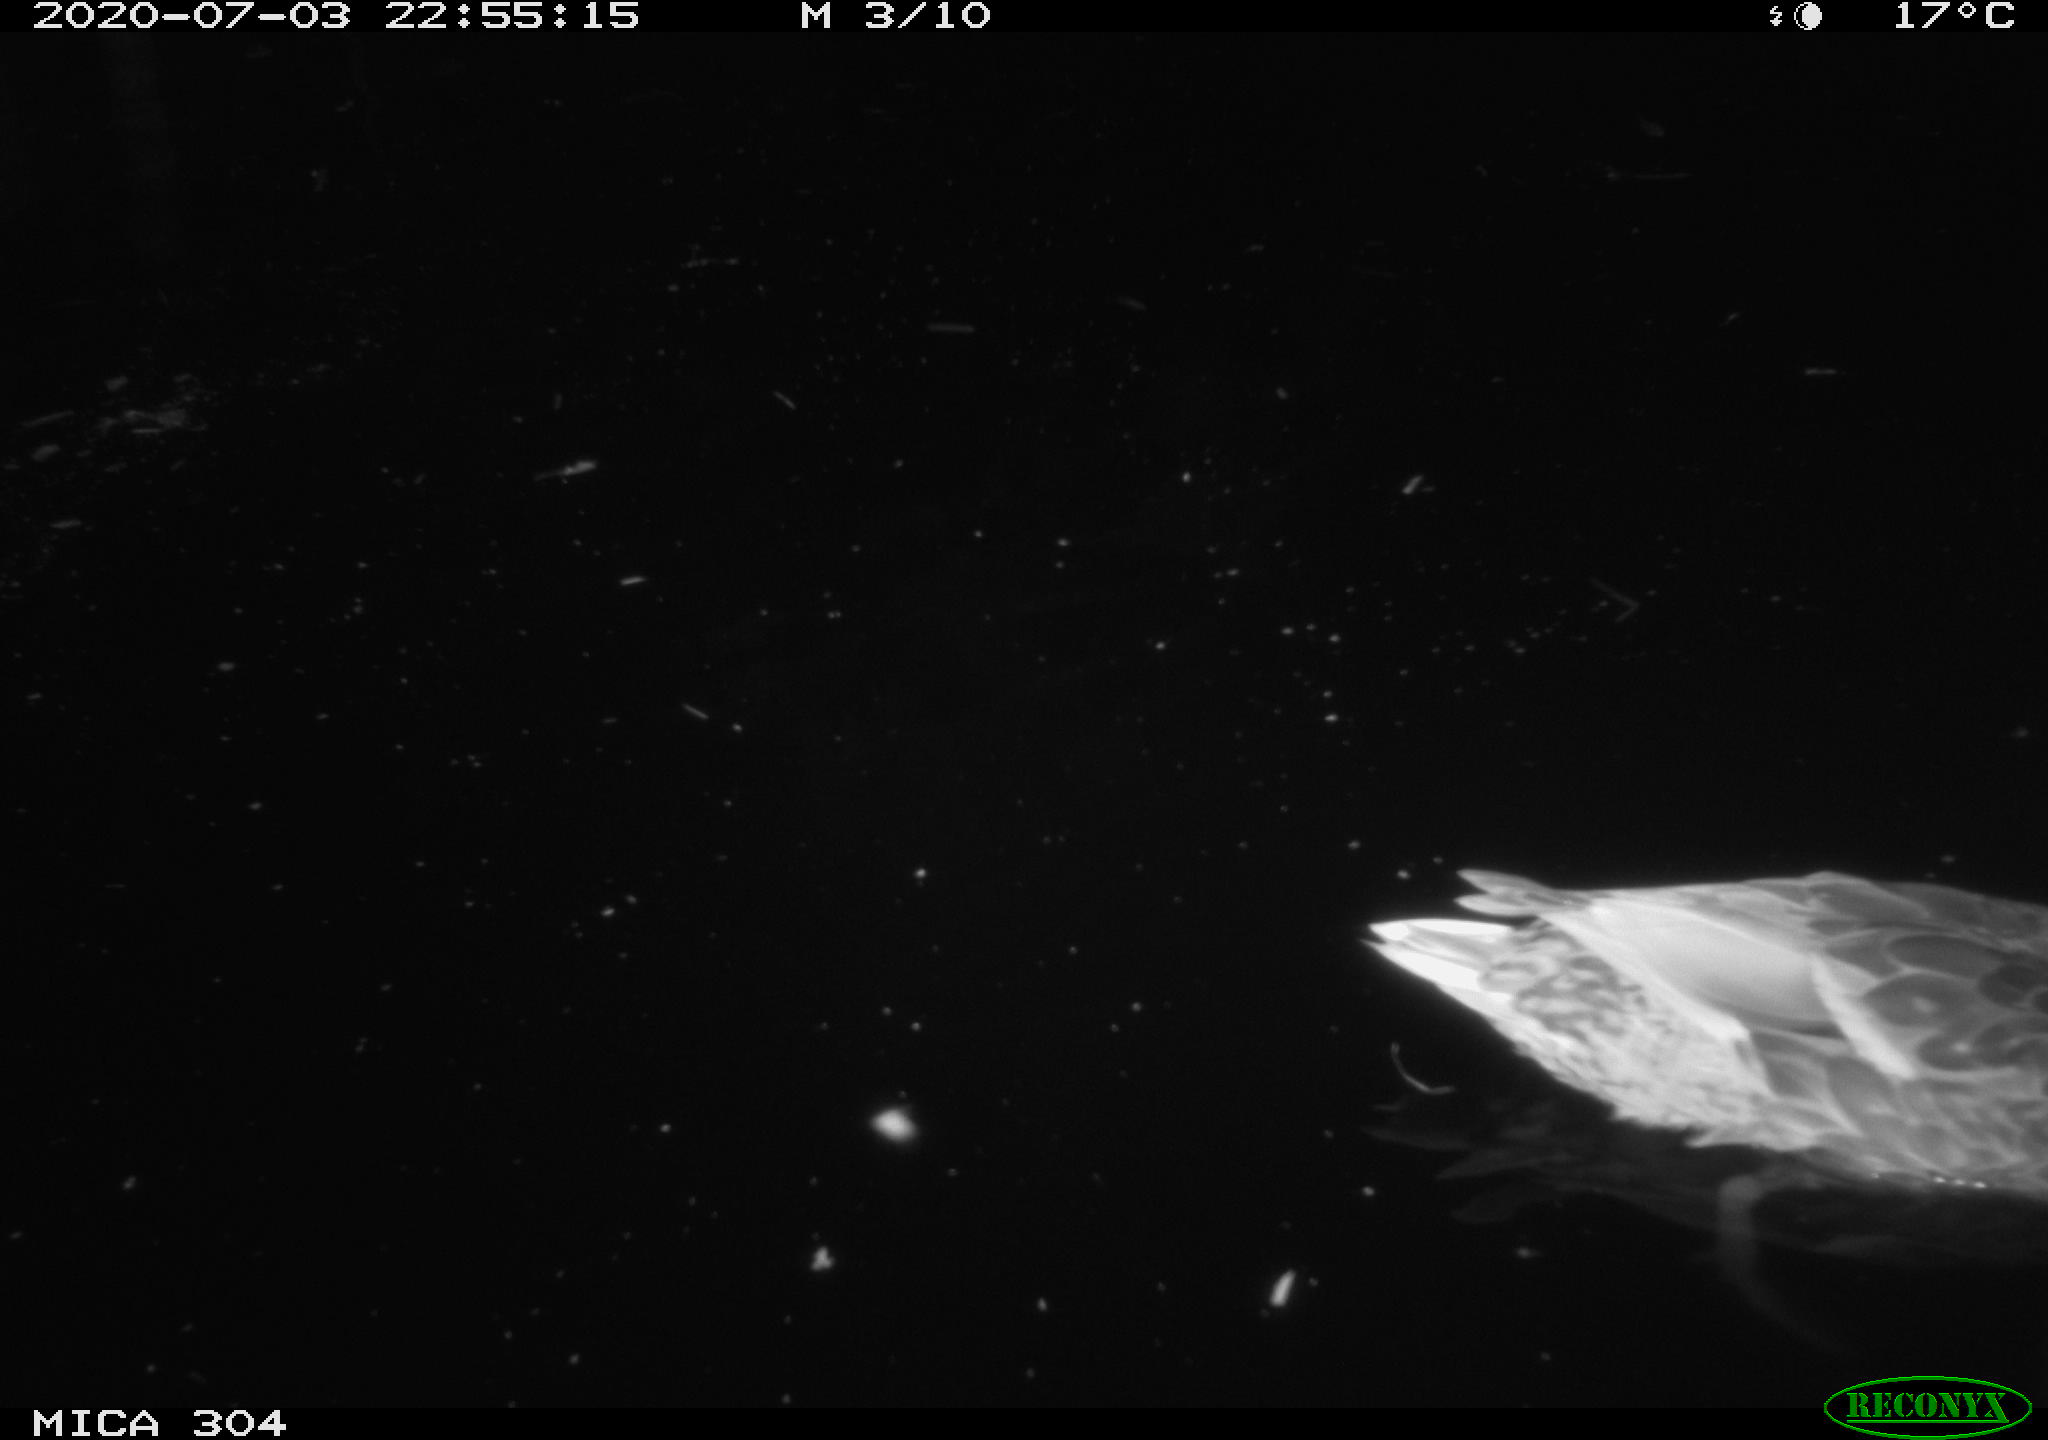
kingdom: Animalia
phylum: Chordata
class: Aves
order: Anseriformes
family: Anatidae
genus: Anas
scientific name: Anas platyrhynchos
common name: Mallard
